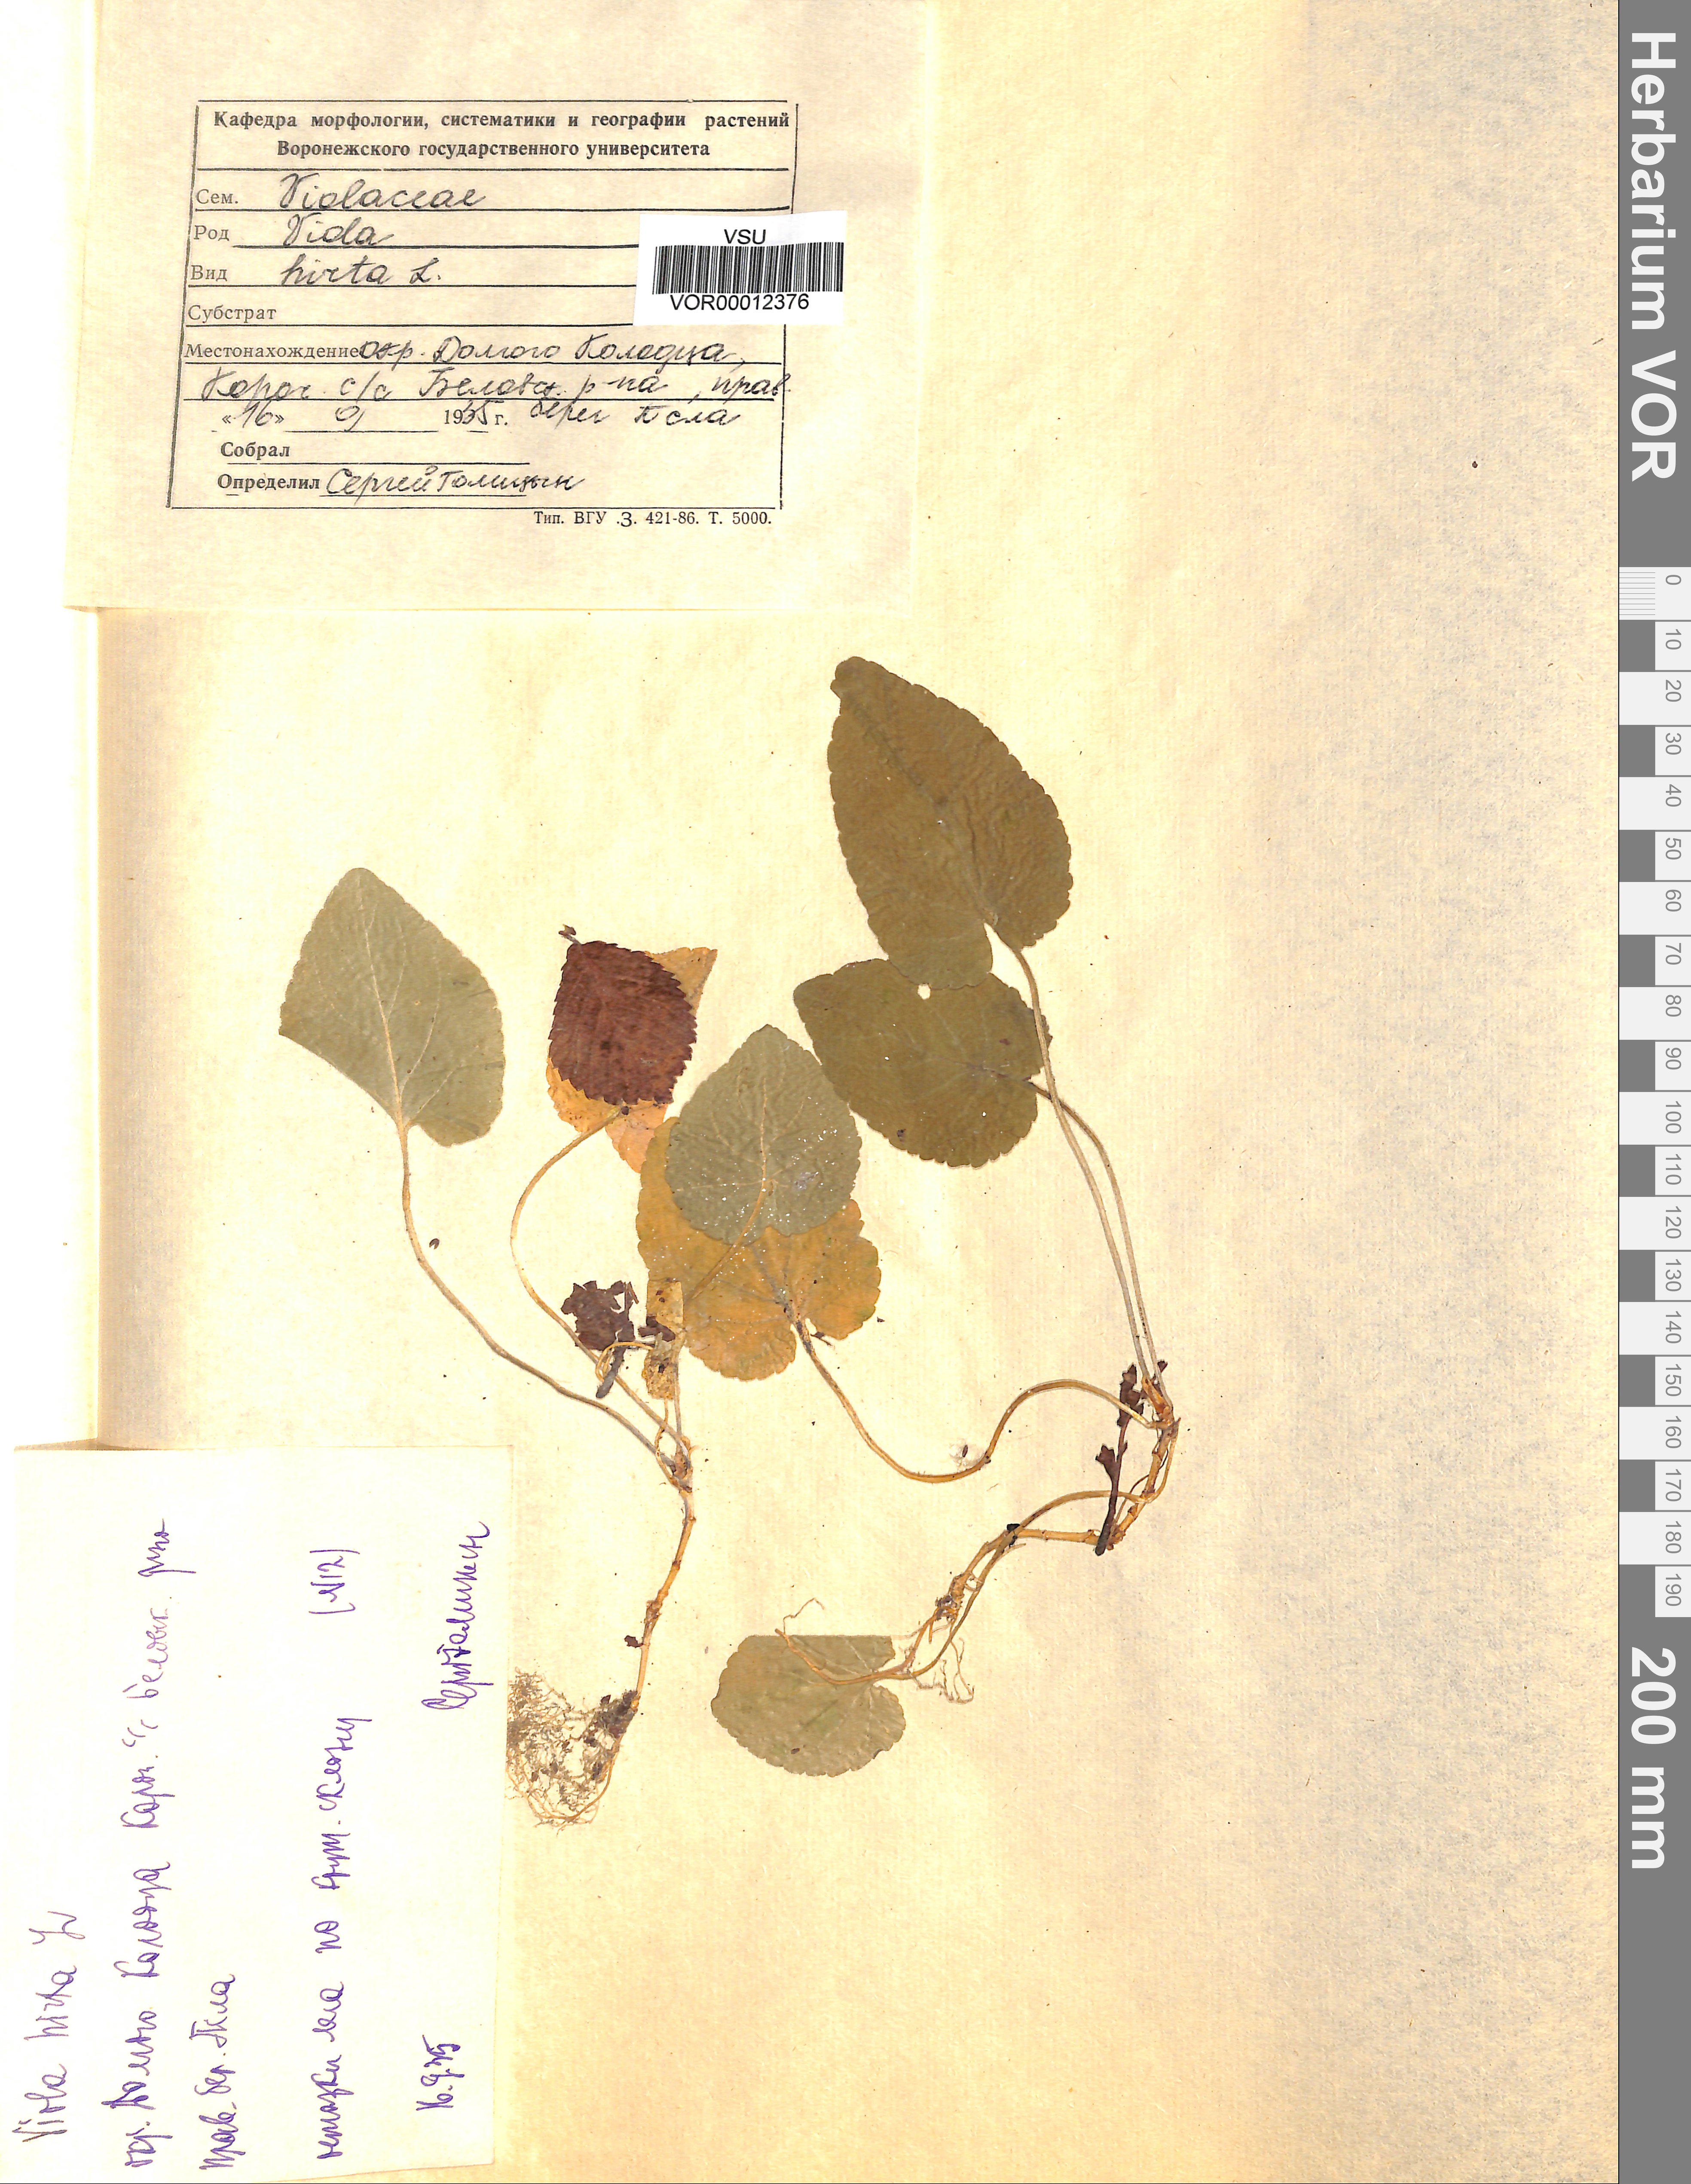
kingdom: Plantae
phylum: Tracheophyta
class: Magnoliopsida
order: Malpighiales
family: Violaceae
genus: Viola
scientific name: Viola hirta
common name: Hairy violet
